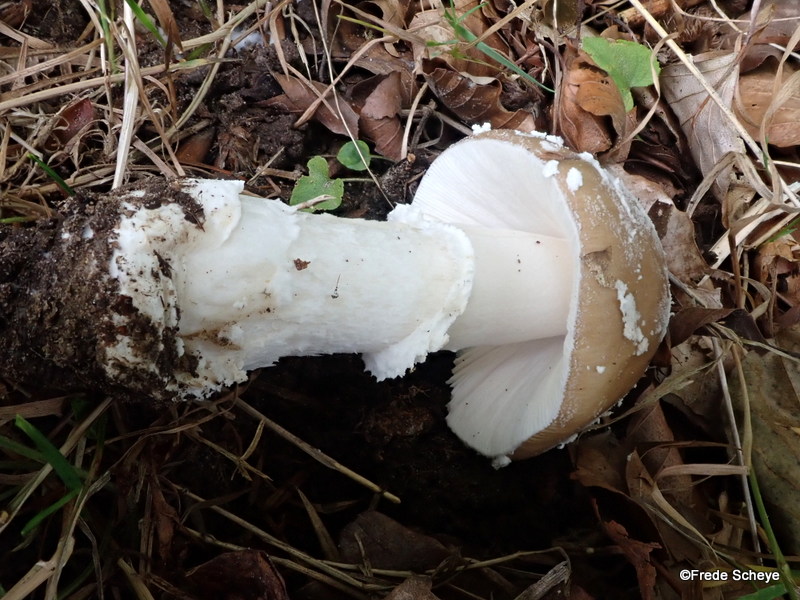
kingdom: Fungi
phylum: Basidiomycota
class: Agaricomycetes
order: Agaricales
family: Amanitaceae
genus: Amanita
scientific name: Amanita pantherina
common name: panter-fluesvamp
